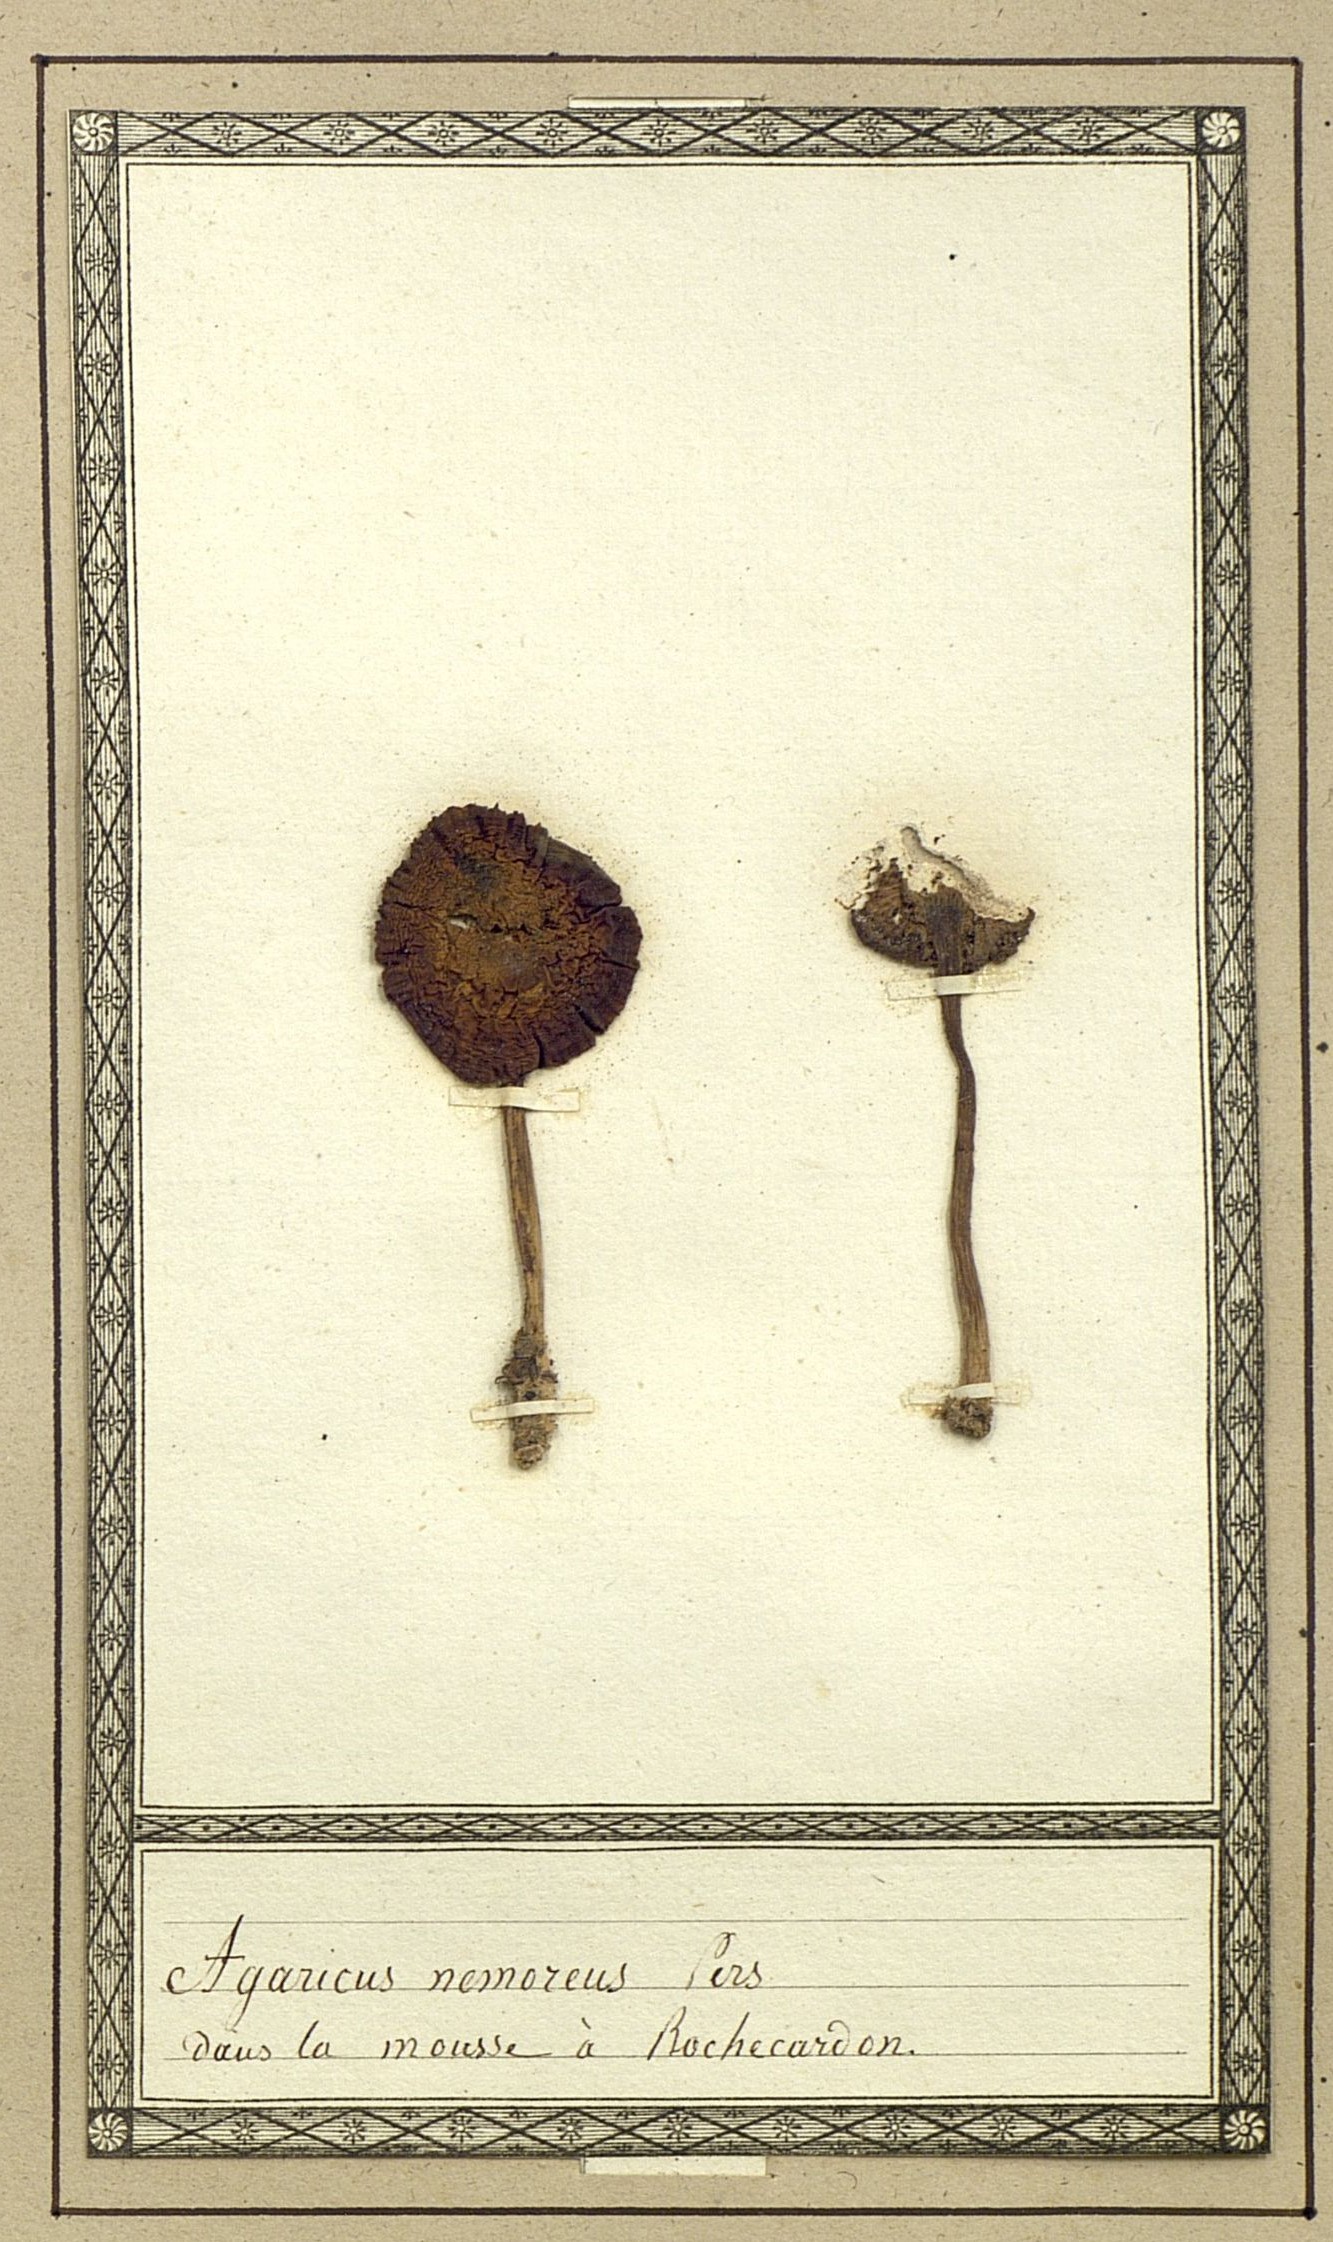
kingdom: Fungi
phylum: Basidiomycota
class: Agaricomycetes
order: Agaricales
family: Hygrophoraceae
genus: Hygrophorus
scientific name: Hygrophorus nemoreus
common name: Oak woodwax
